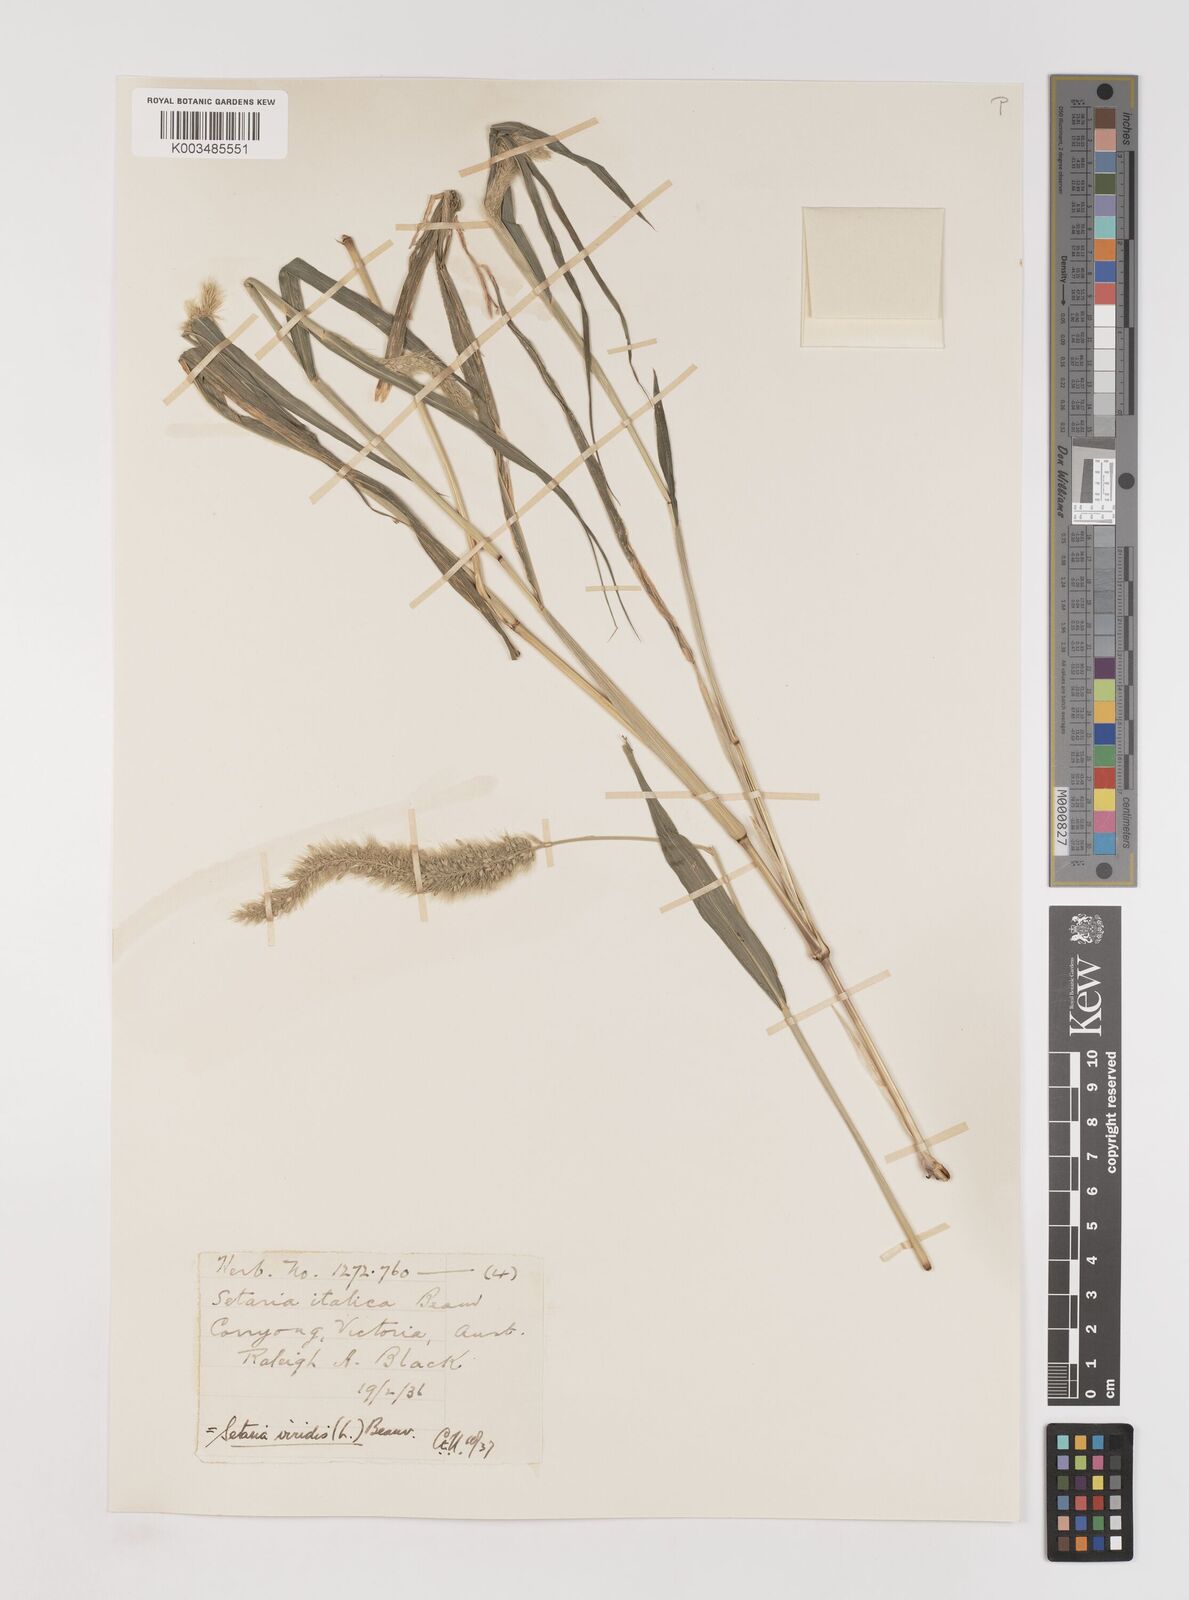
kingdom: Plantae
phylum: Tracheophyta
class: Liliopsida
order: Poales
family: Poaceae
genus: Setaria
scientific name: Setaria viridis
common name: Green bristlegrass
